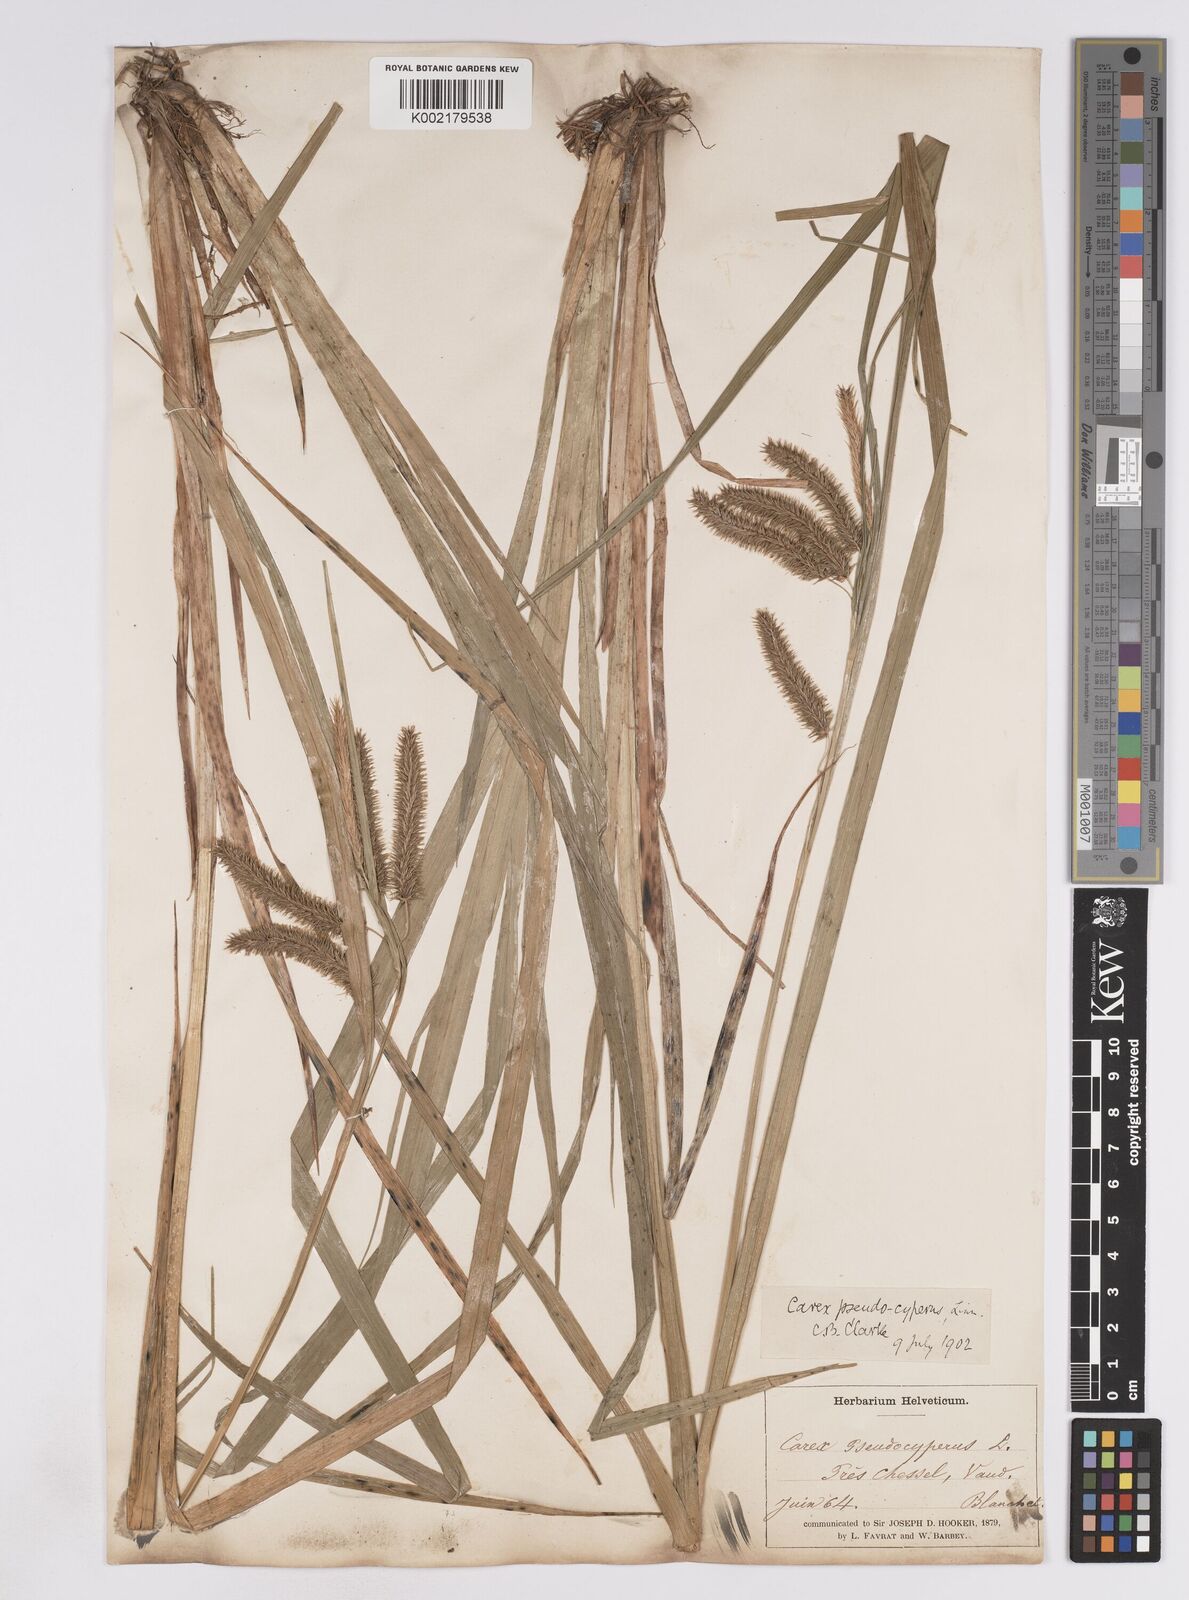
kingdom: Plantae
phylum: Tracheophyta
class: Liliopsida
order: Poales
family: Cyperaceae
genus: Carex
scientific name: Carex pseudocyperus
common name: Cyperus sedge
